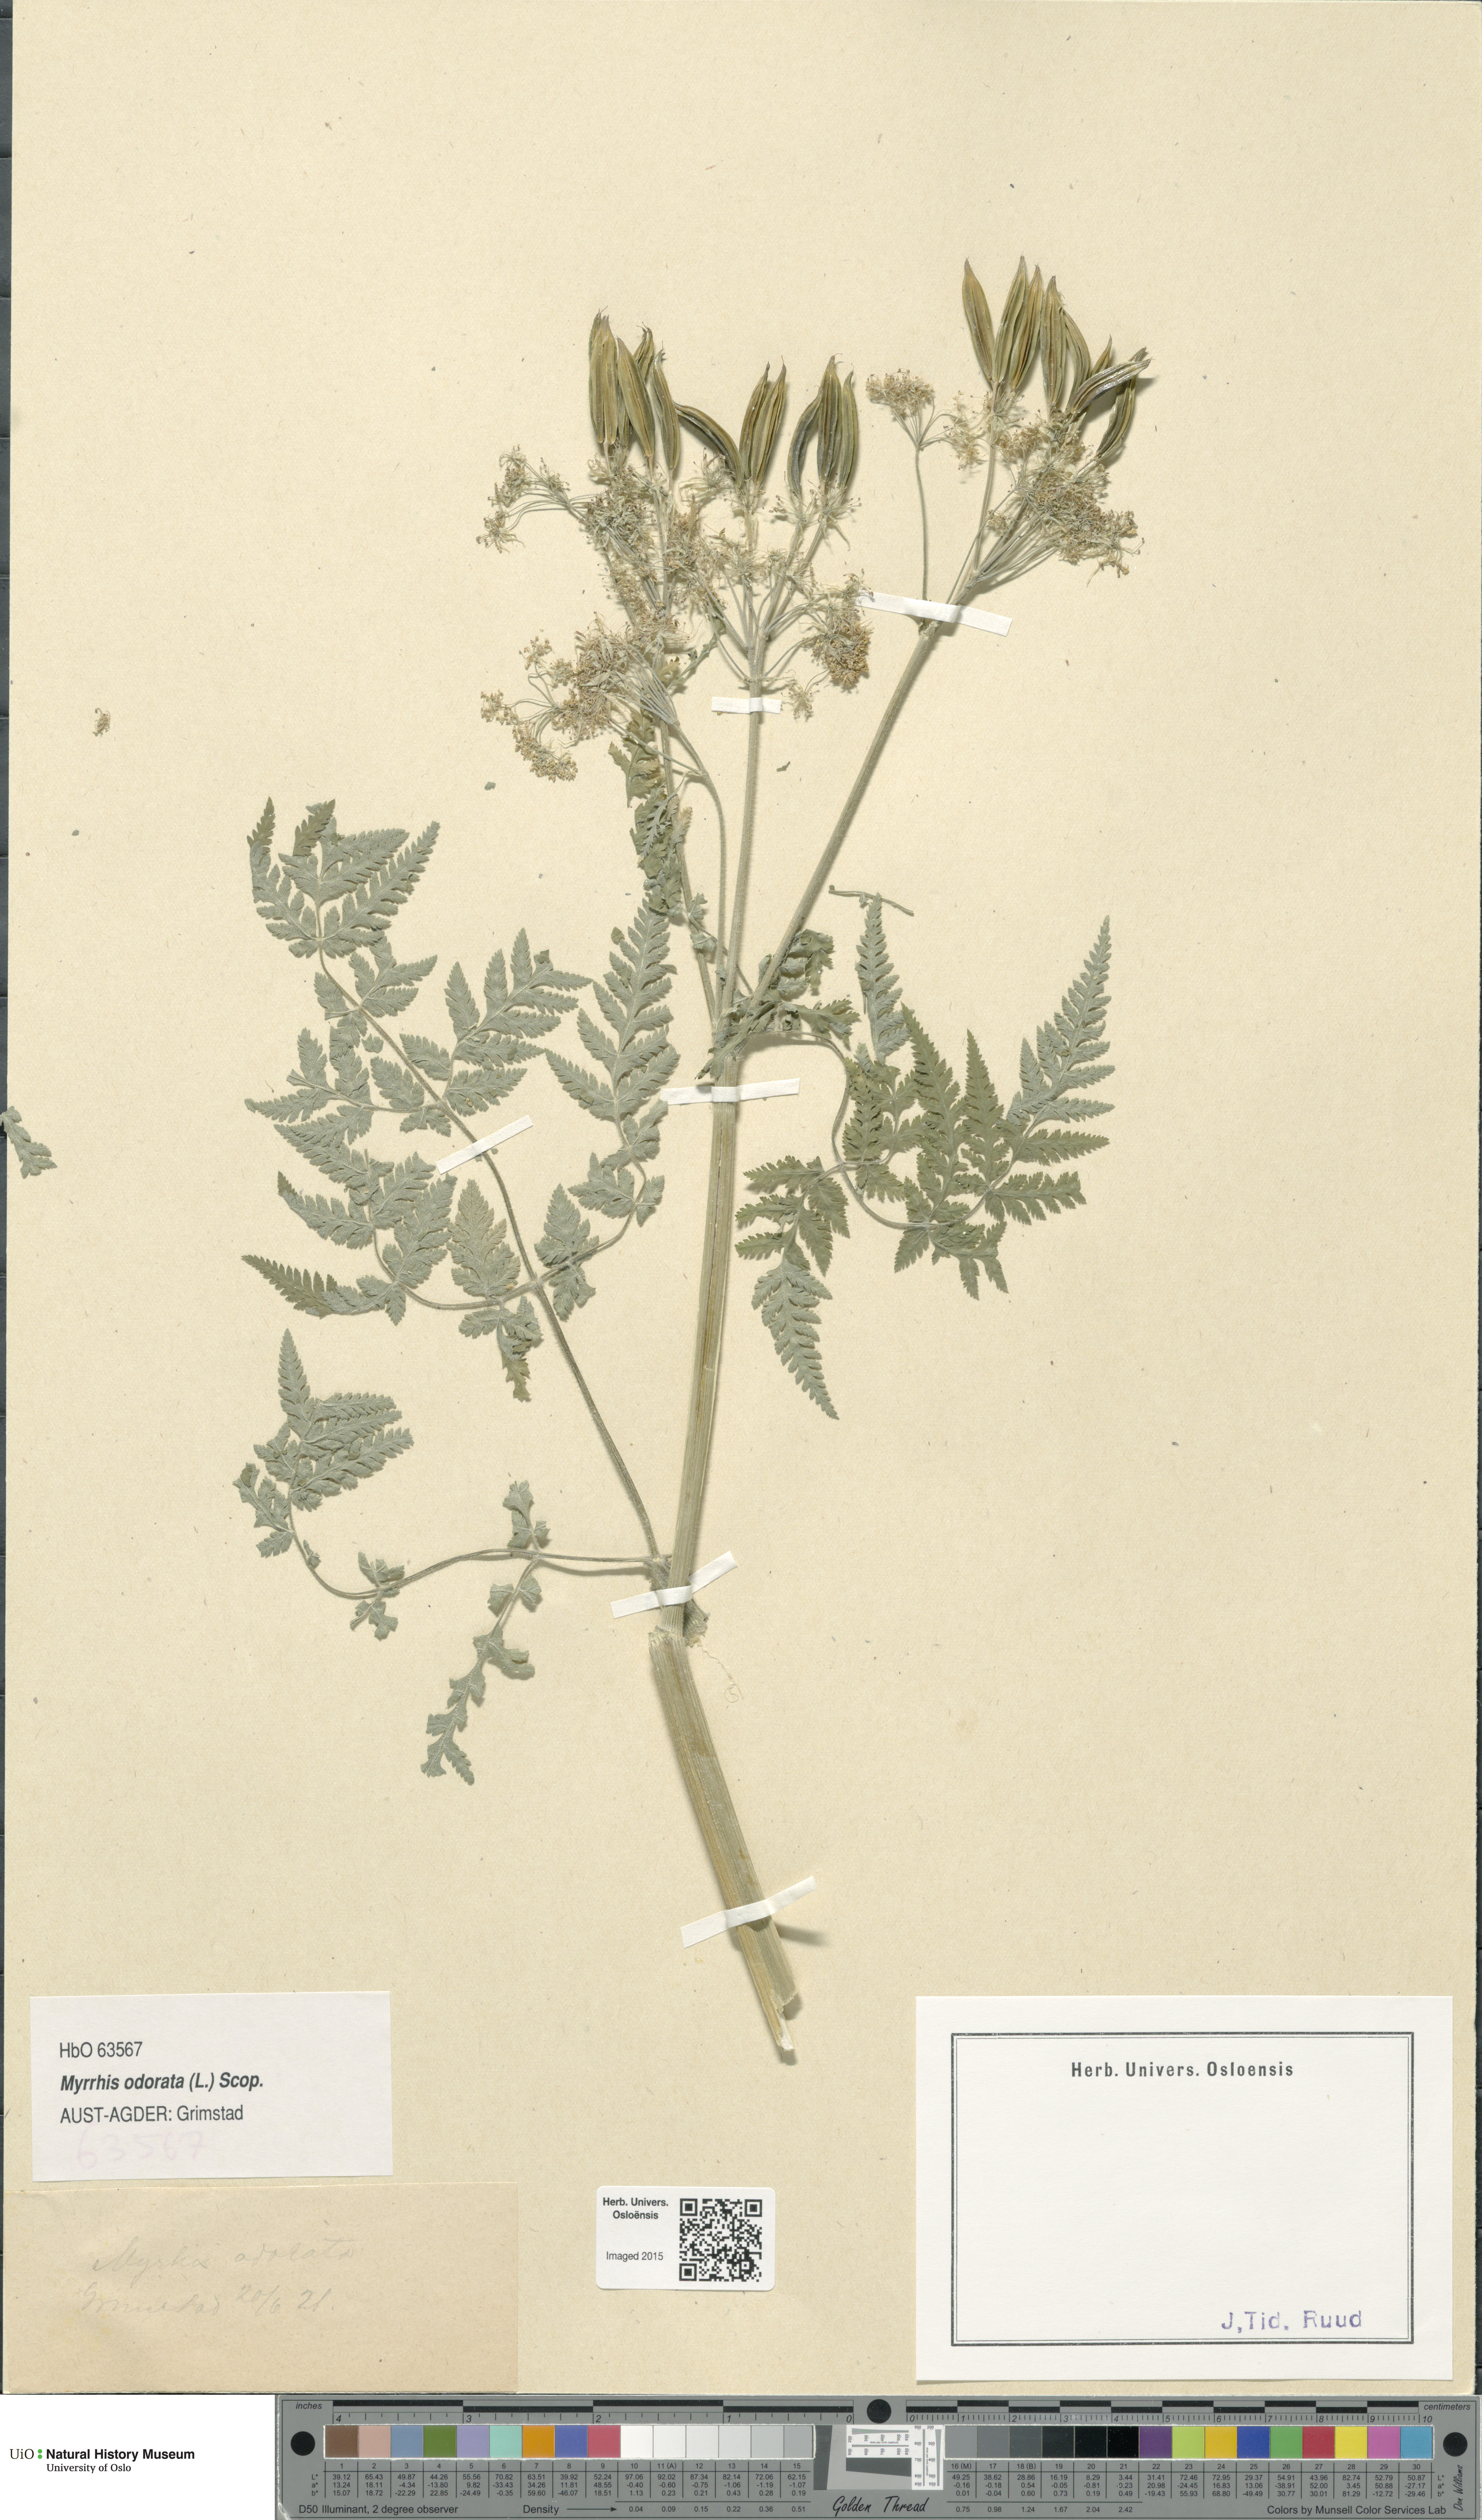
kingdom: Plantae
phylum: Tracheophyta
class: Magnoliopsida
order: Apiales
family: Apiaceae
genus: Myrrhis
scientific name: Myrrhis odorata
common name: Sweet cicely
